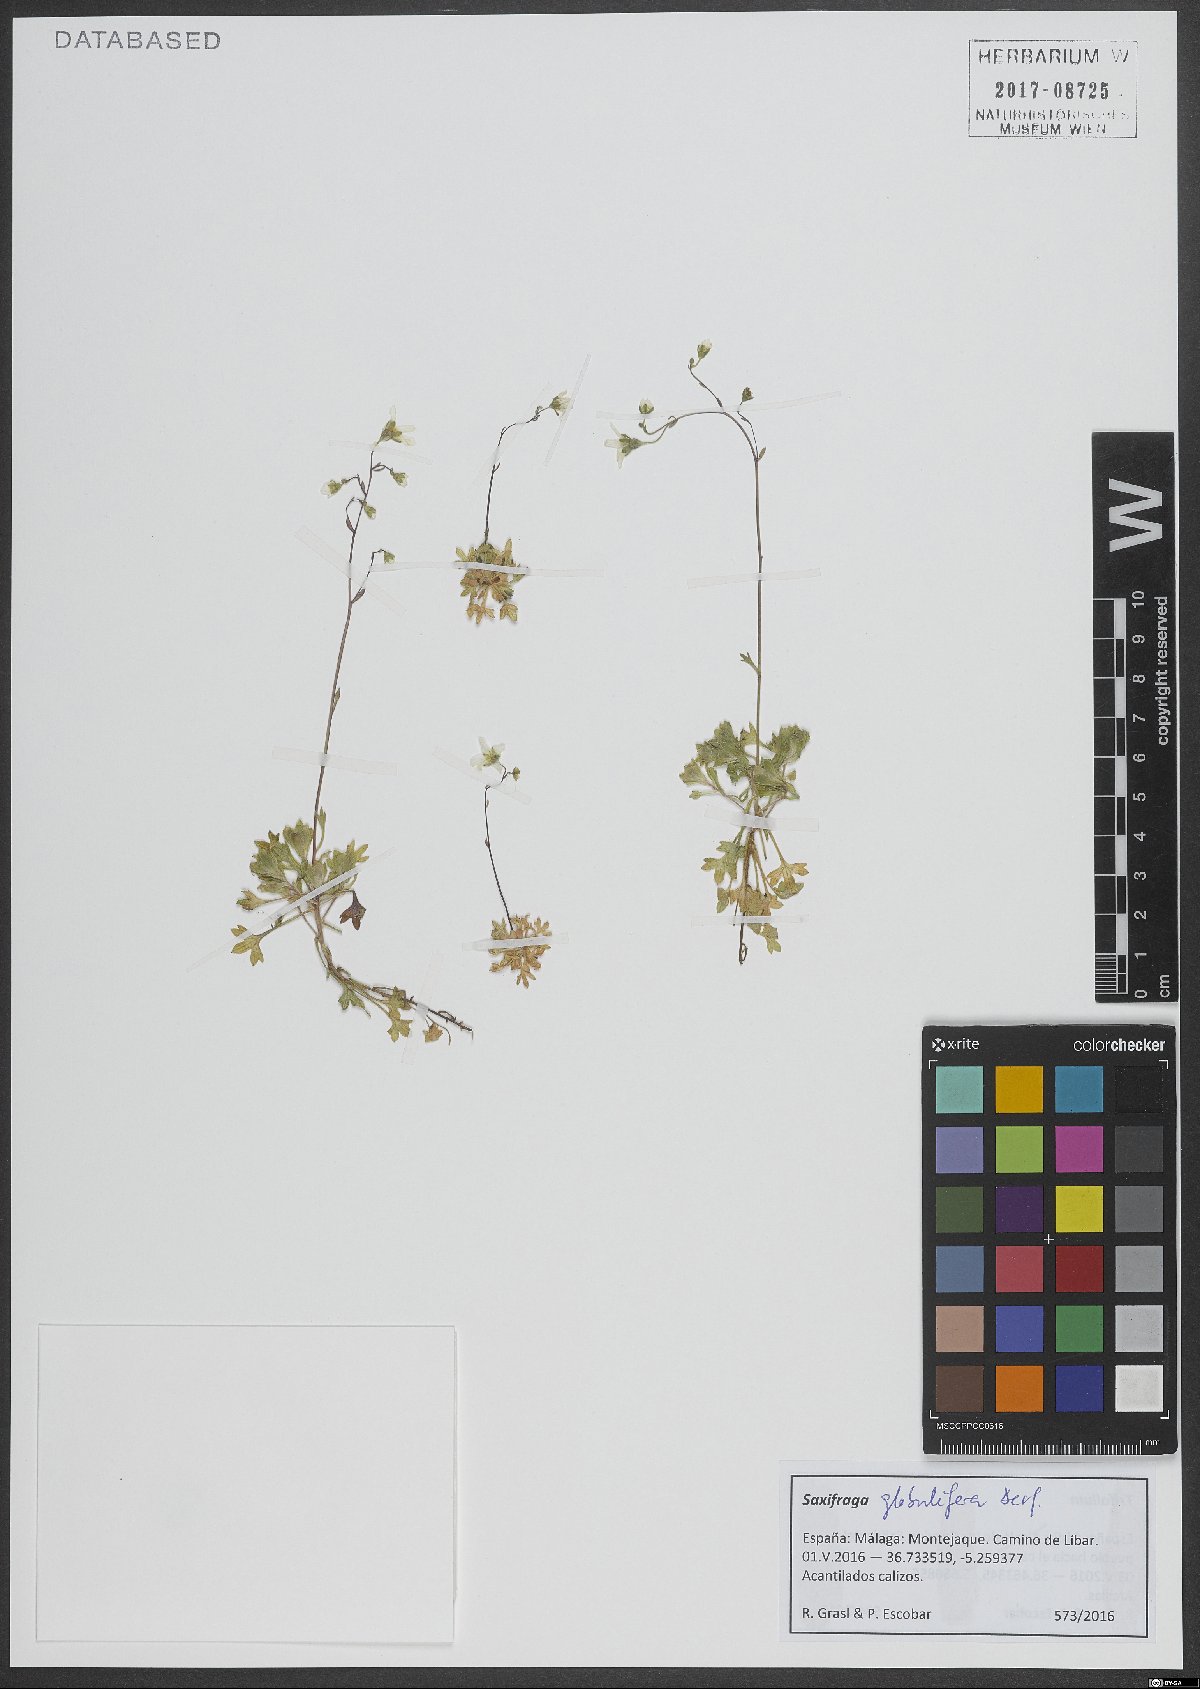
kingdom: Plantae
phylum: Tracheophyta
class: Magnoliopsida
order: Saxifragales
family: Saxifragaceae
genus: Saxifraga
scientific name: Saxifraga globulifera
